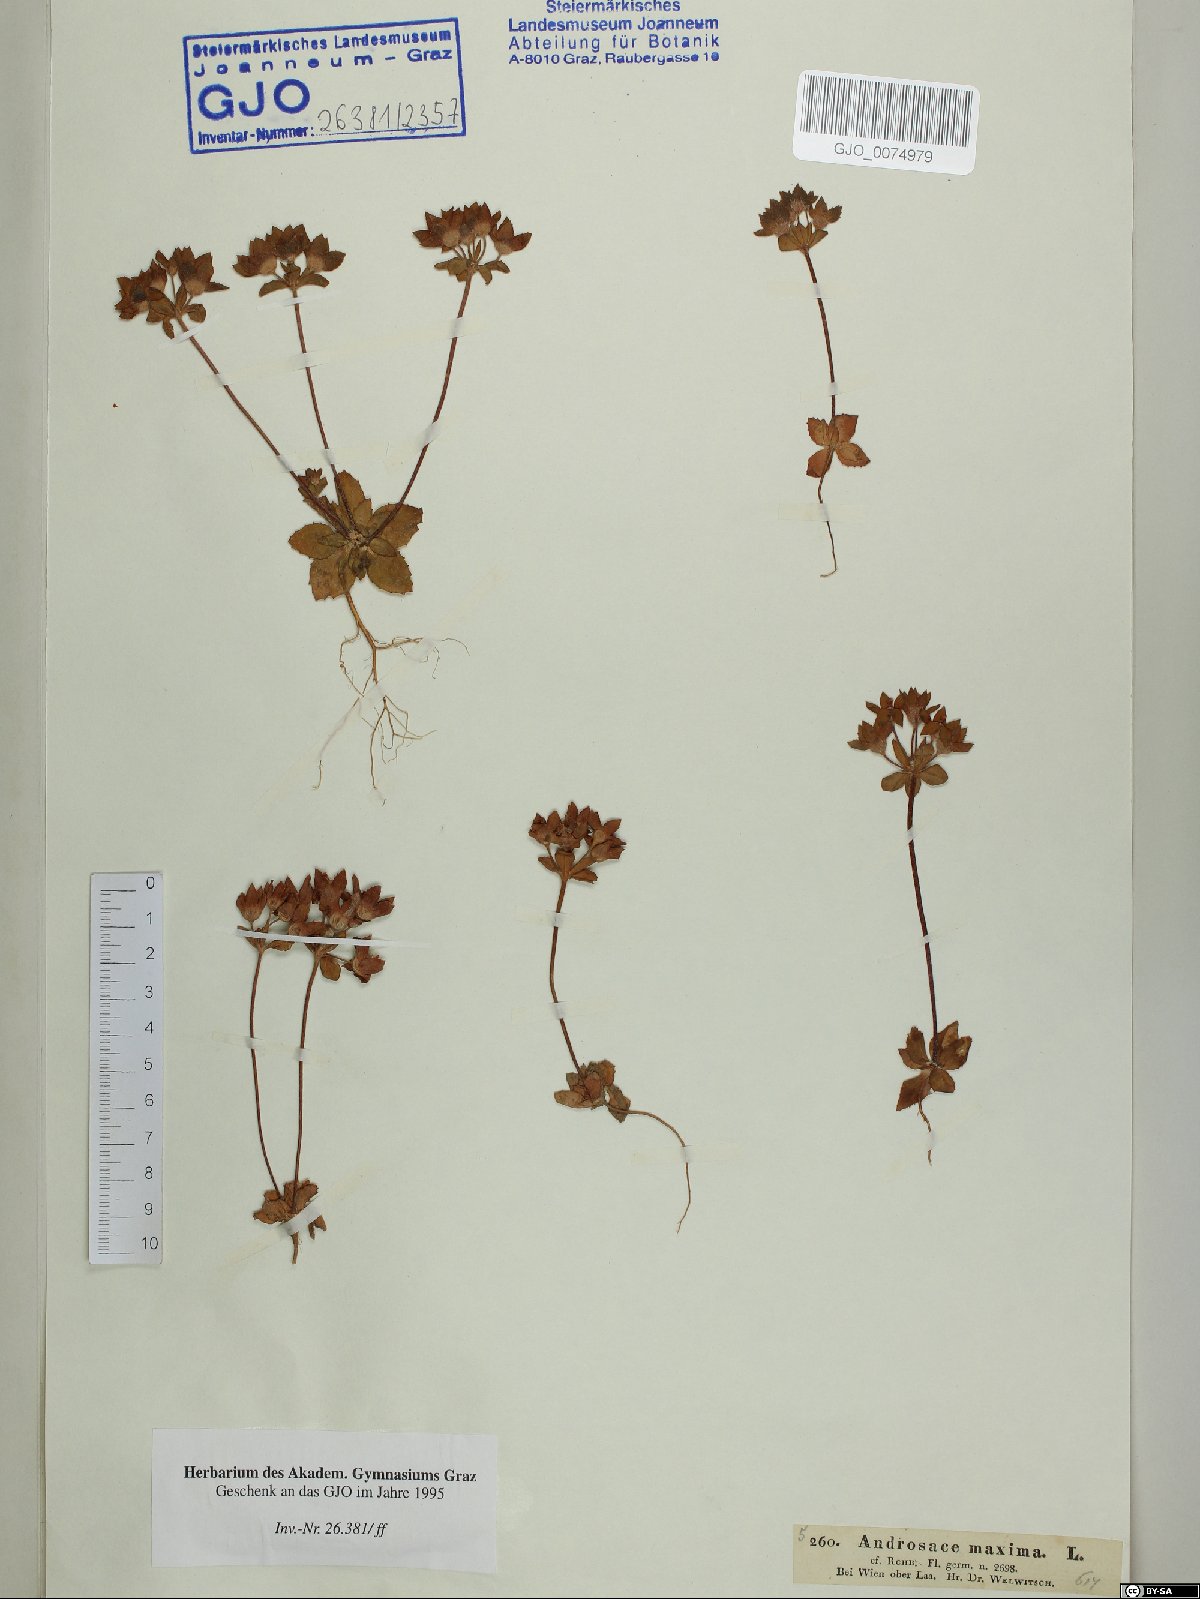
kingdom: Plantae
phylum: Tracheophyta
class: Magnoliopsida
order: Ericales
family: Primulaceae
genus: Androsace
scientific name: Androsace maxima
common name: Annual androsace
